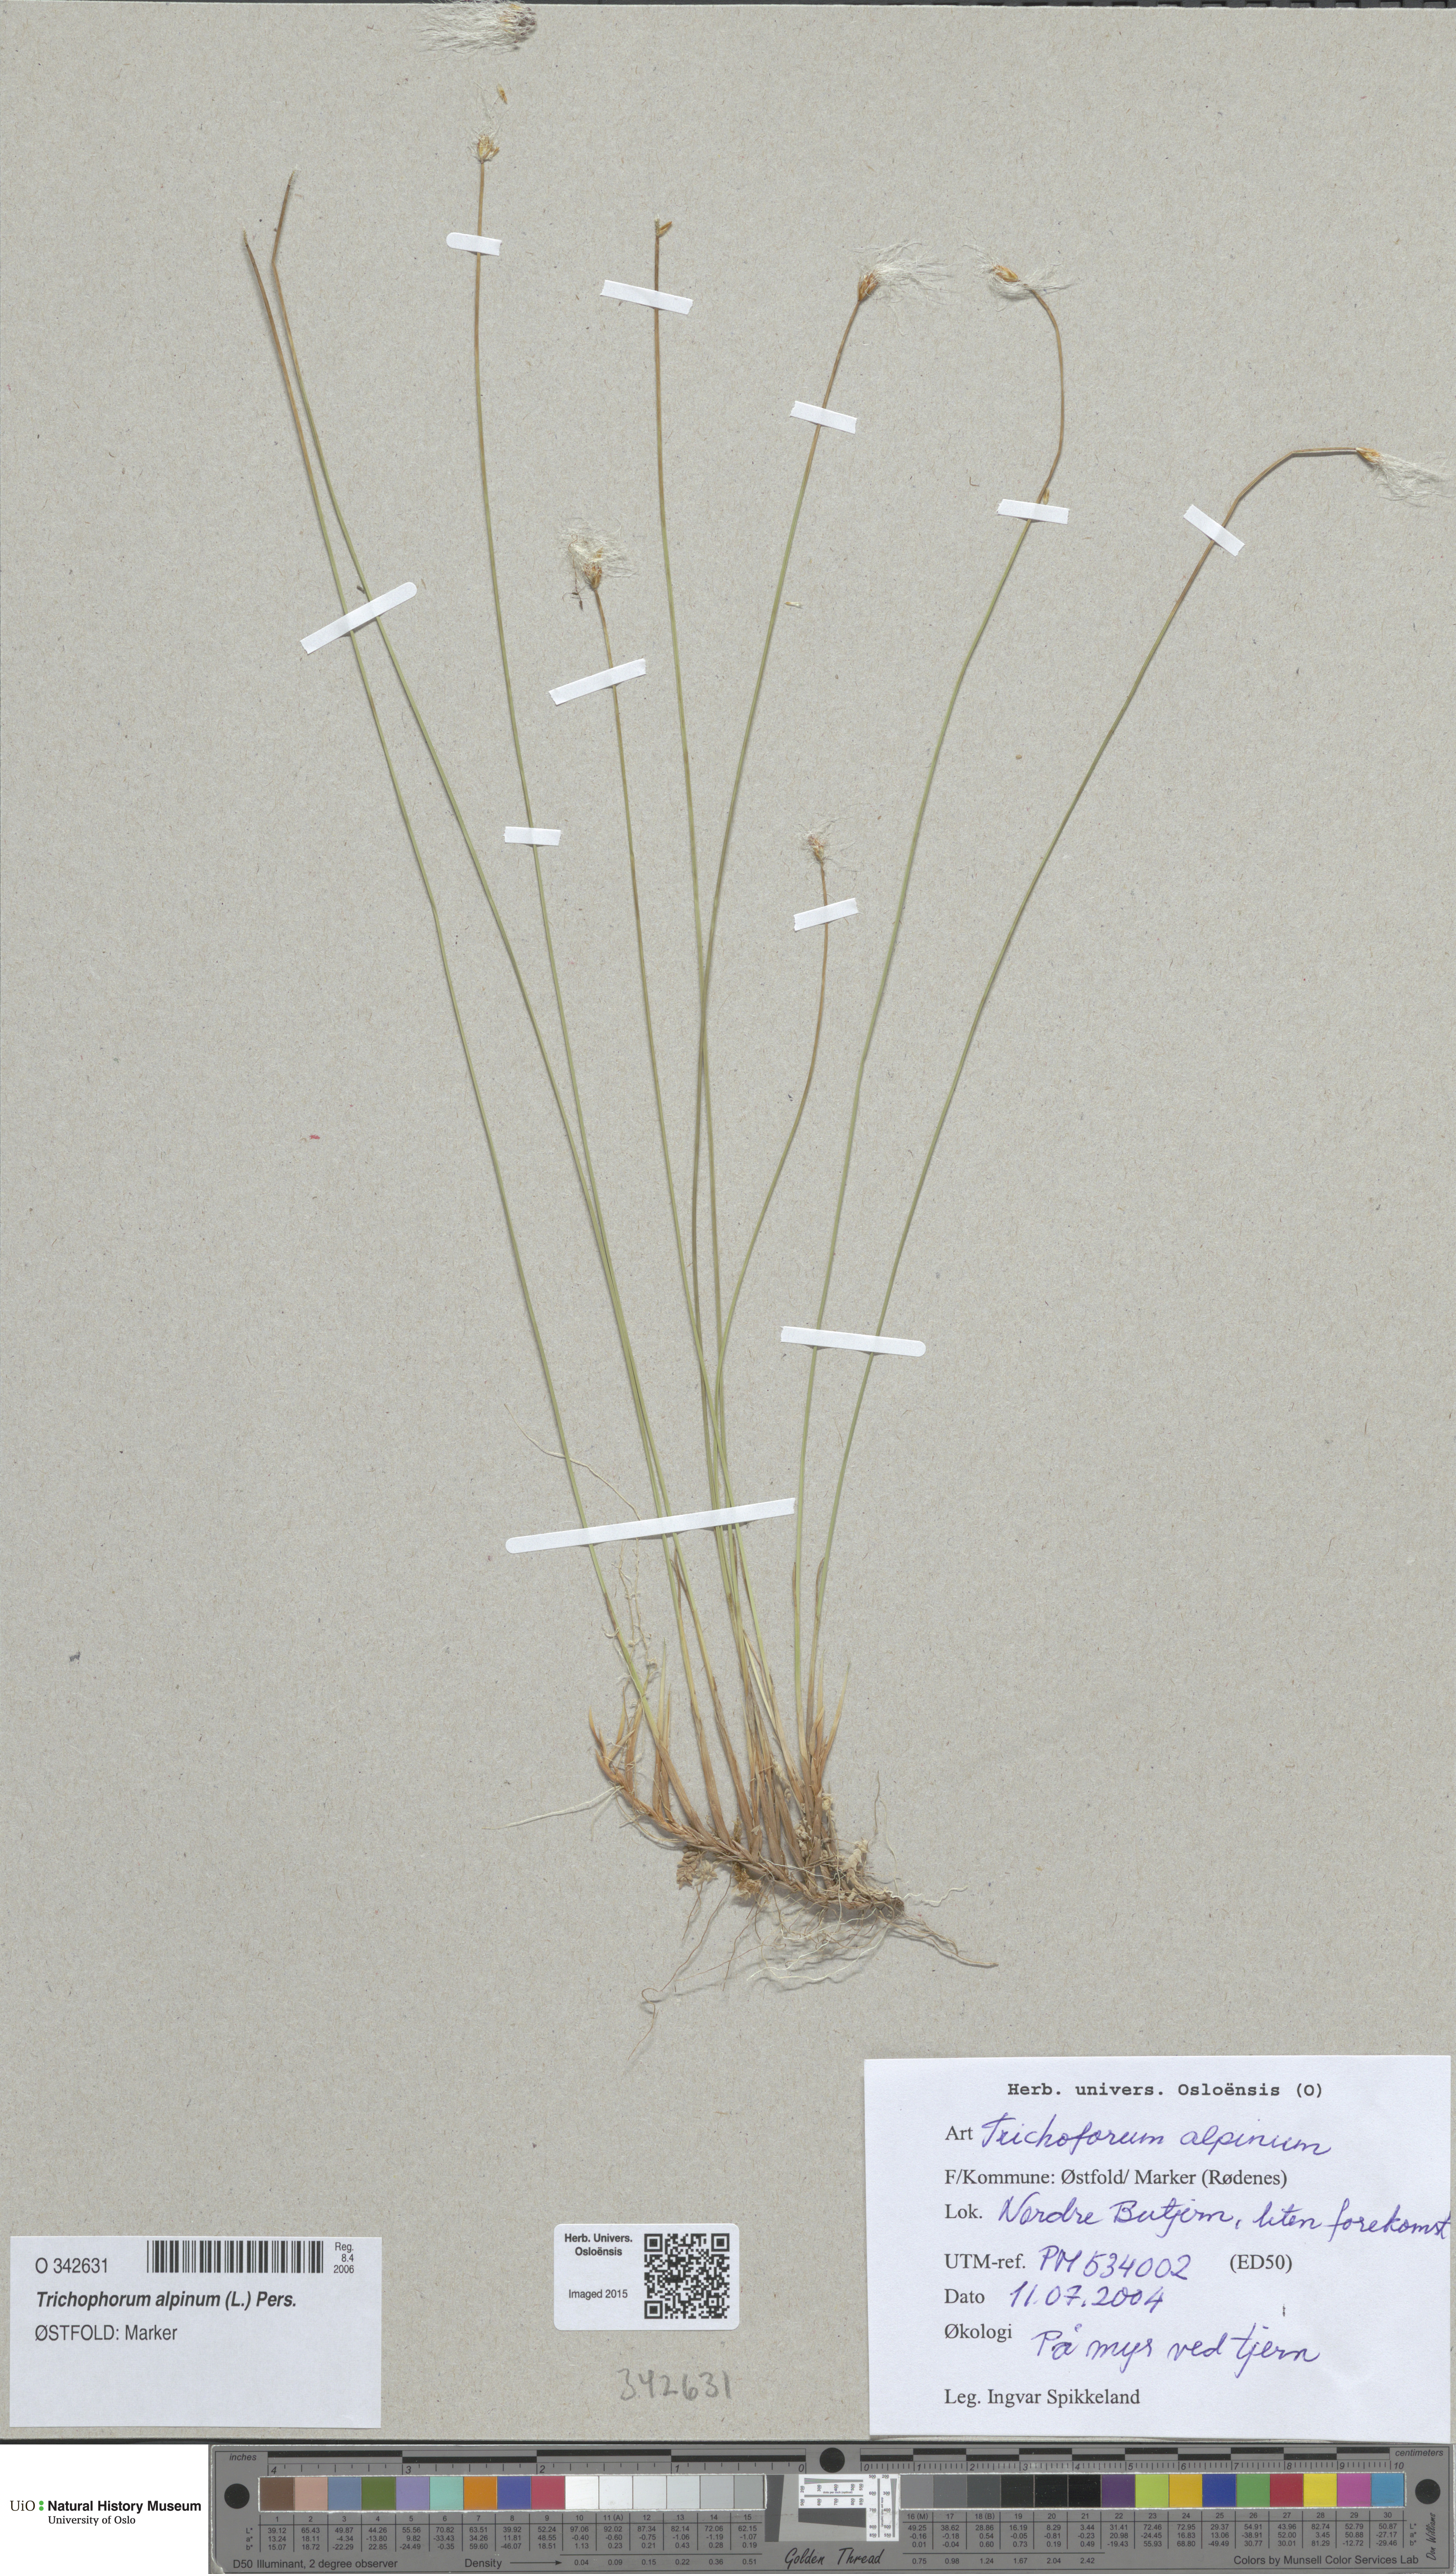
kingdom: Plantae
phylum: Tracheophyta
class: Liliopsida
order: Poales
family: Cyperaceae
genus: Trichophorum
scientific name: Trichophorum alpinum
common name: Alpine bulrush
